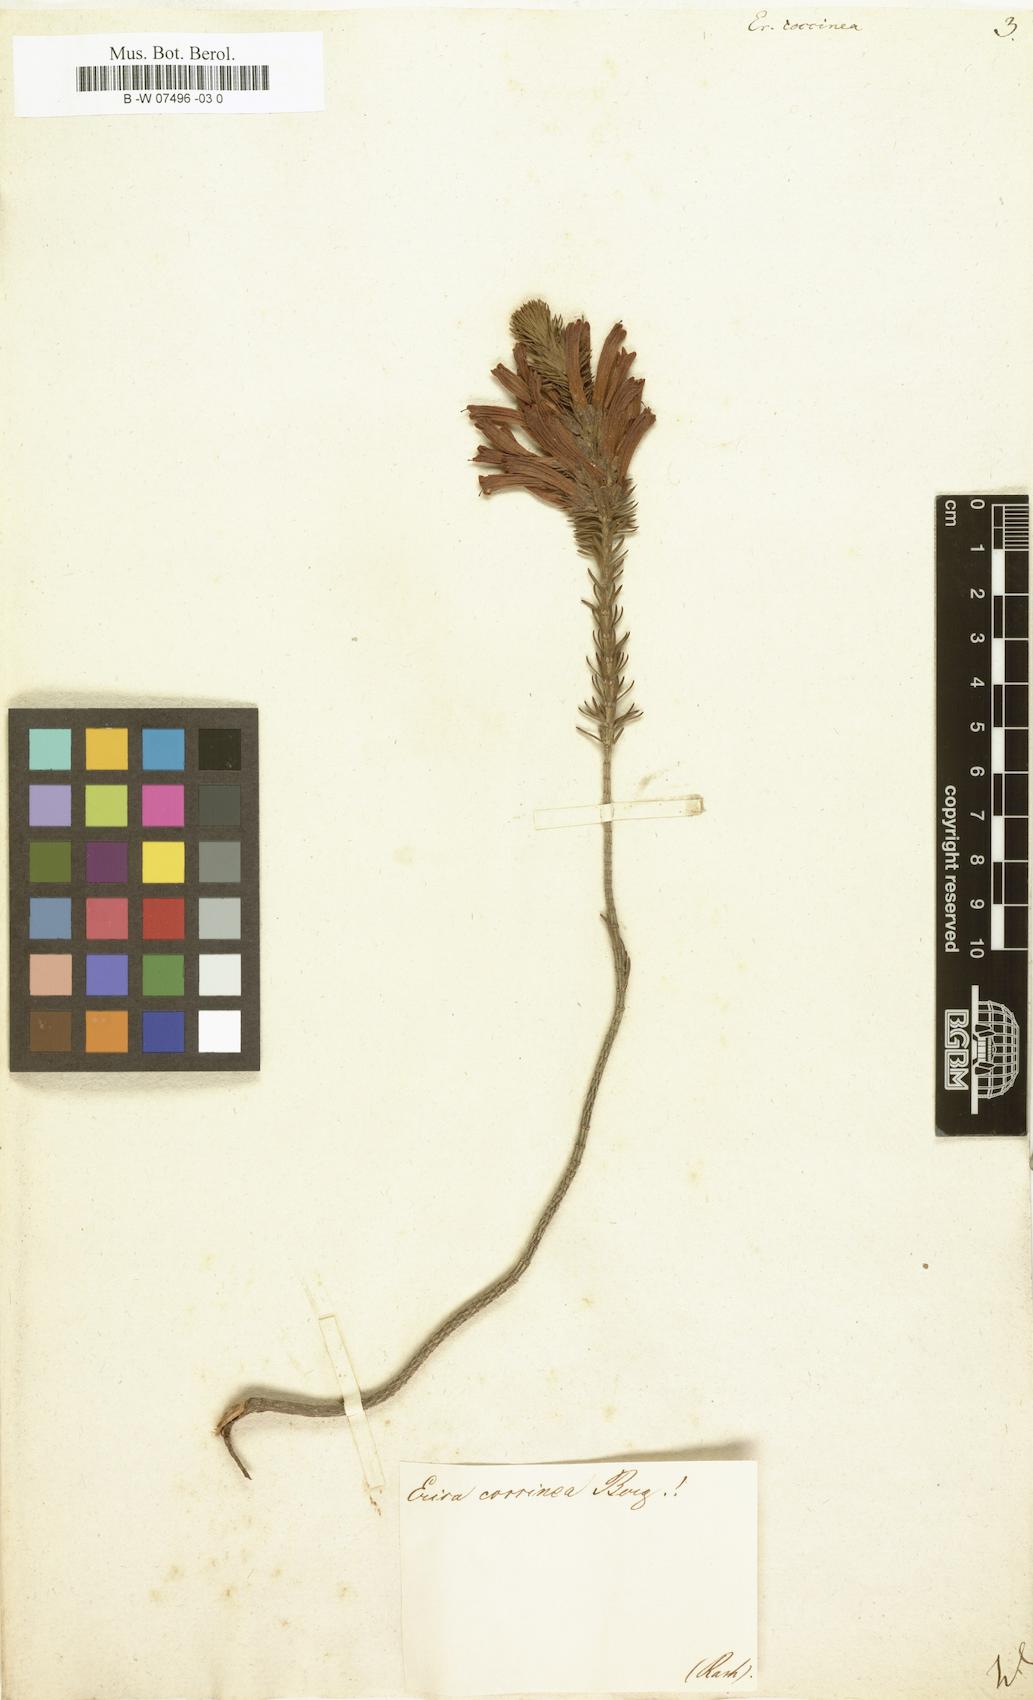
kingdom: Plantae
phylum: Tracheophyta
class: Magnoliopsida
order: Ericales
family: Ericaceae
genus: Erica
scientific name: Erica coccinea
